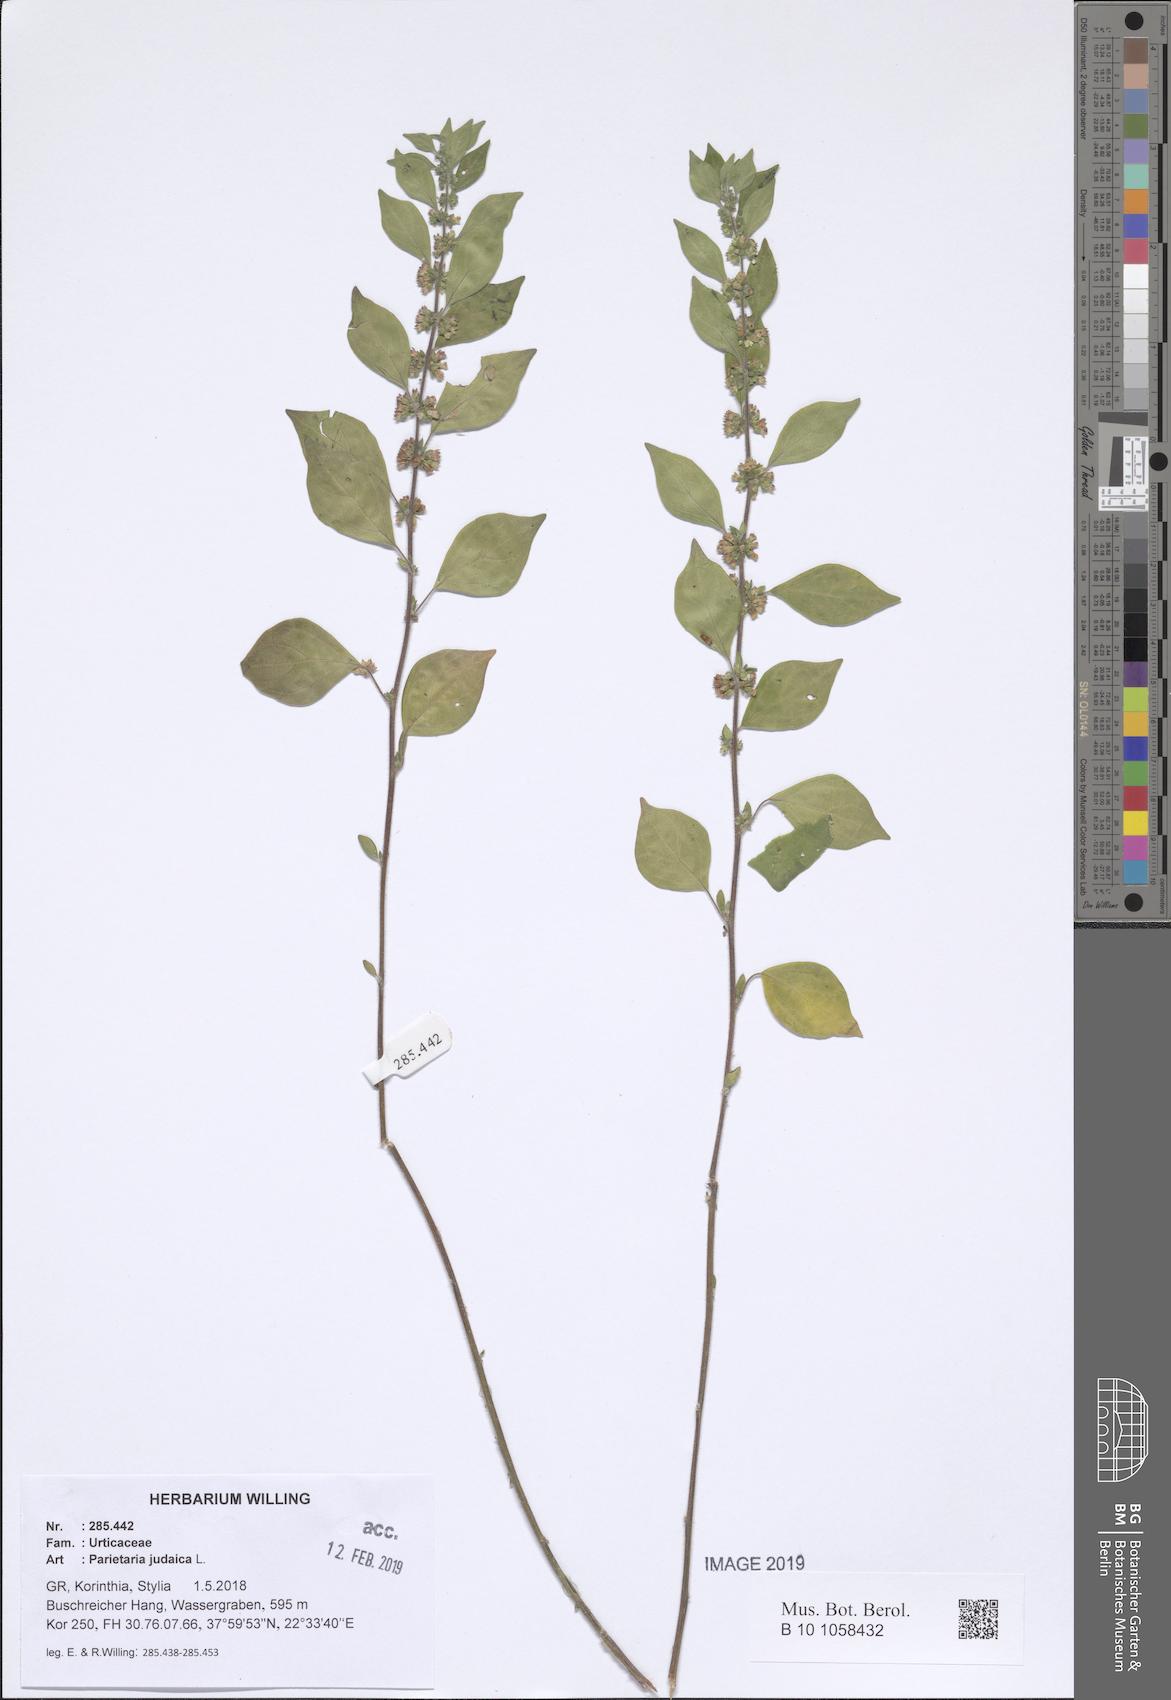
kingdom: Plantae
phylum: Tracheophyta
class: Magnoliopsida
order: Rosales
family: Urticaceae
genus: Parietaria
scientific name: Parietaria judaica
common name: Pellitory-of-the-wall
